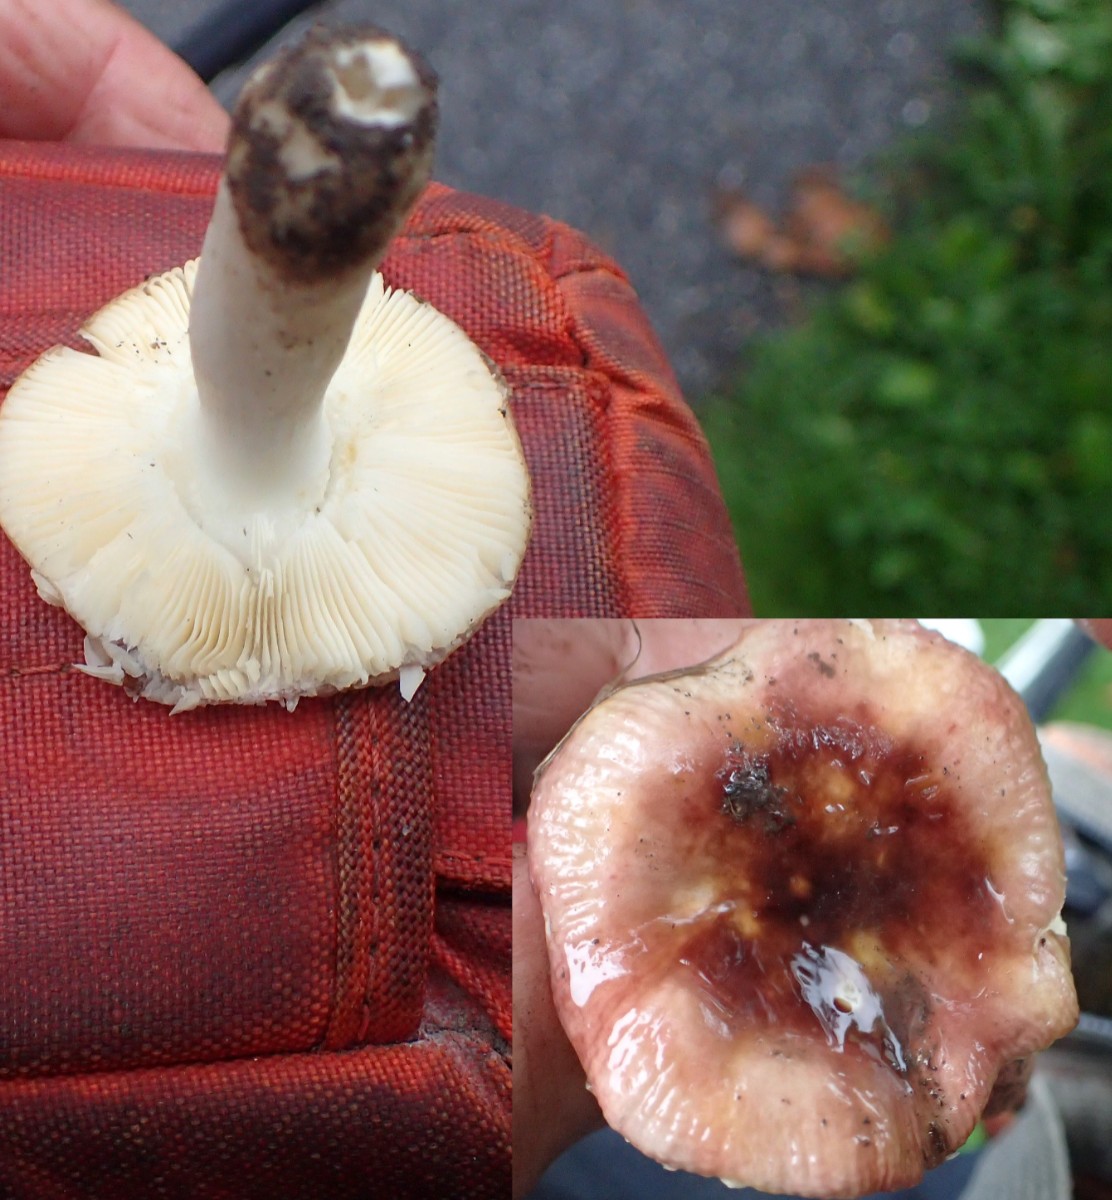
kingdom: Fungi
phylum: Basidiomycota
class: Agaricomycetes
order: Russulales
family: Russulaceae
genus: Russula
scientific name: Russula
